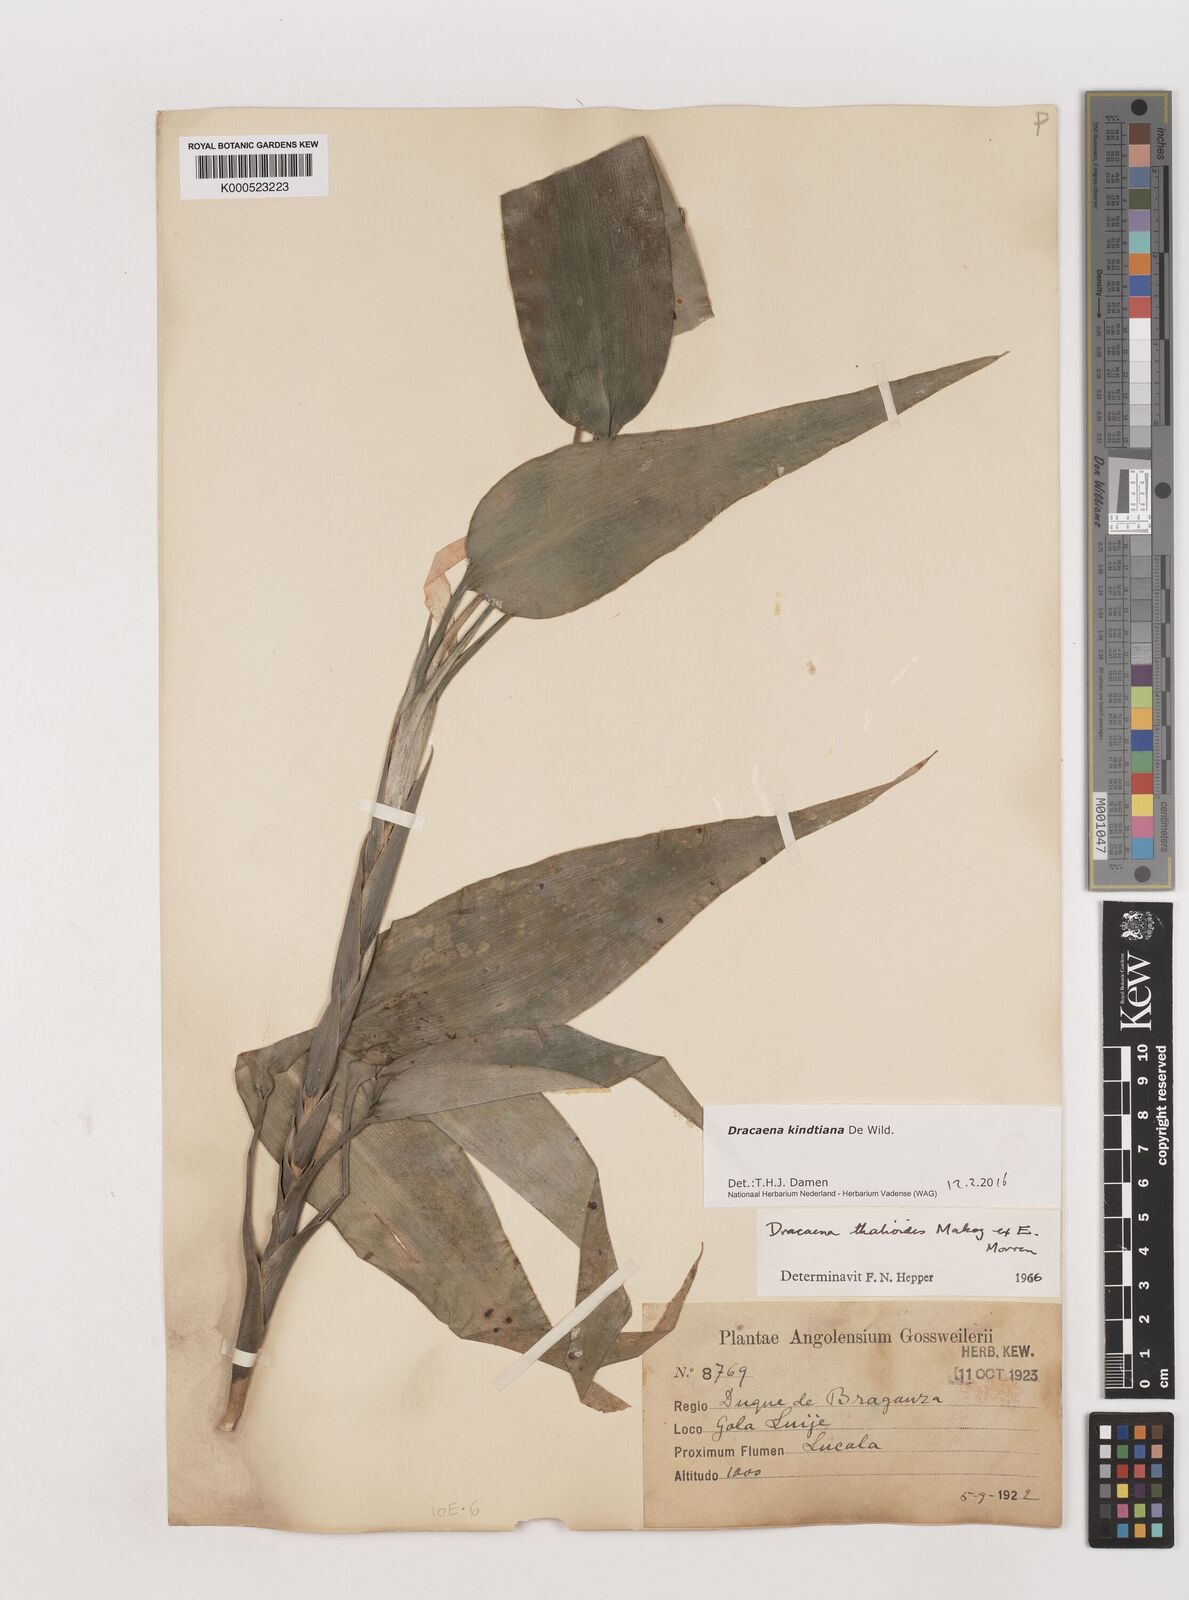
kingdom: Plantae
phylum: Tracheophyta
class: Liliopsida
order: Asparagales
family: Asparagaceae
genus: Dracaena
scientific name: Dracaena kindtiana
